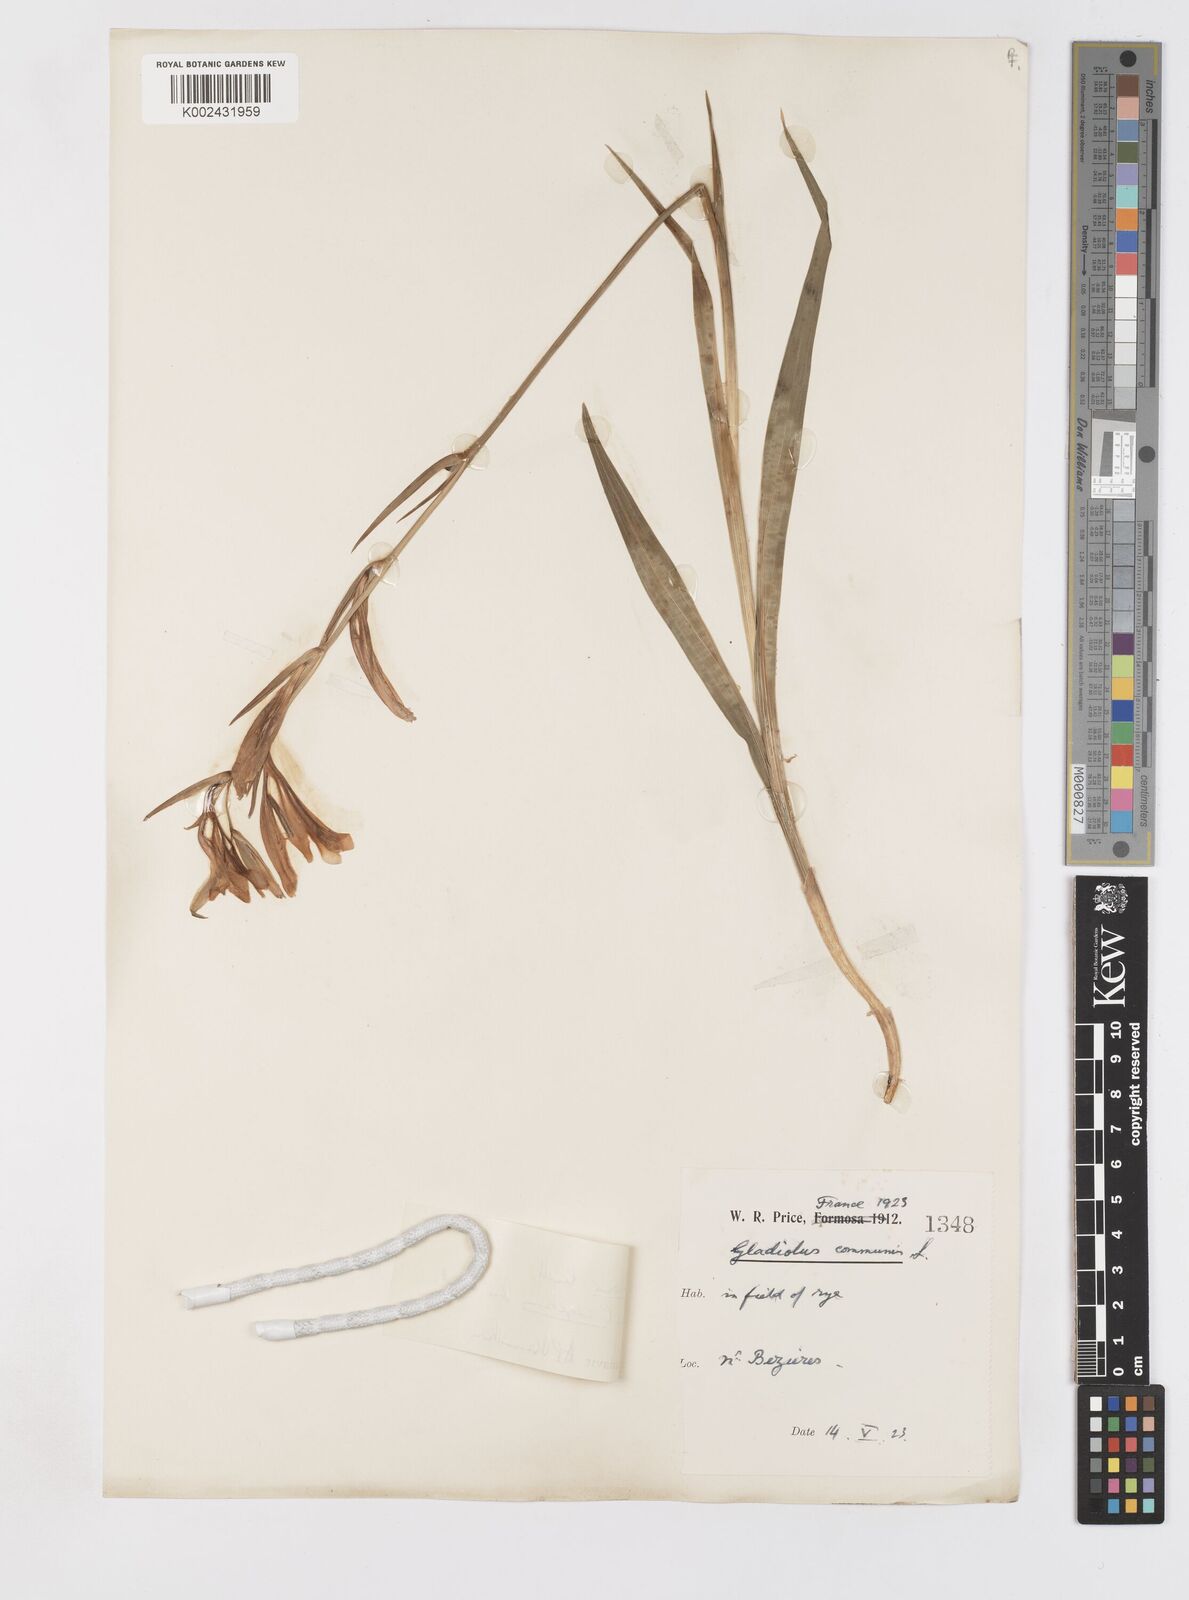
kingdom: Plantae
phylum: Tracheophyta
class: Liliopsida
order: Asparagales
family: Iridaceae
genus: Gladiolus
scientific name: Gladiolus
